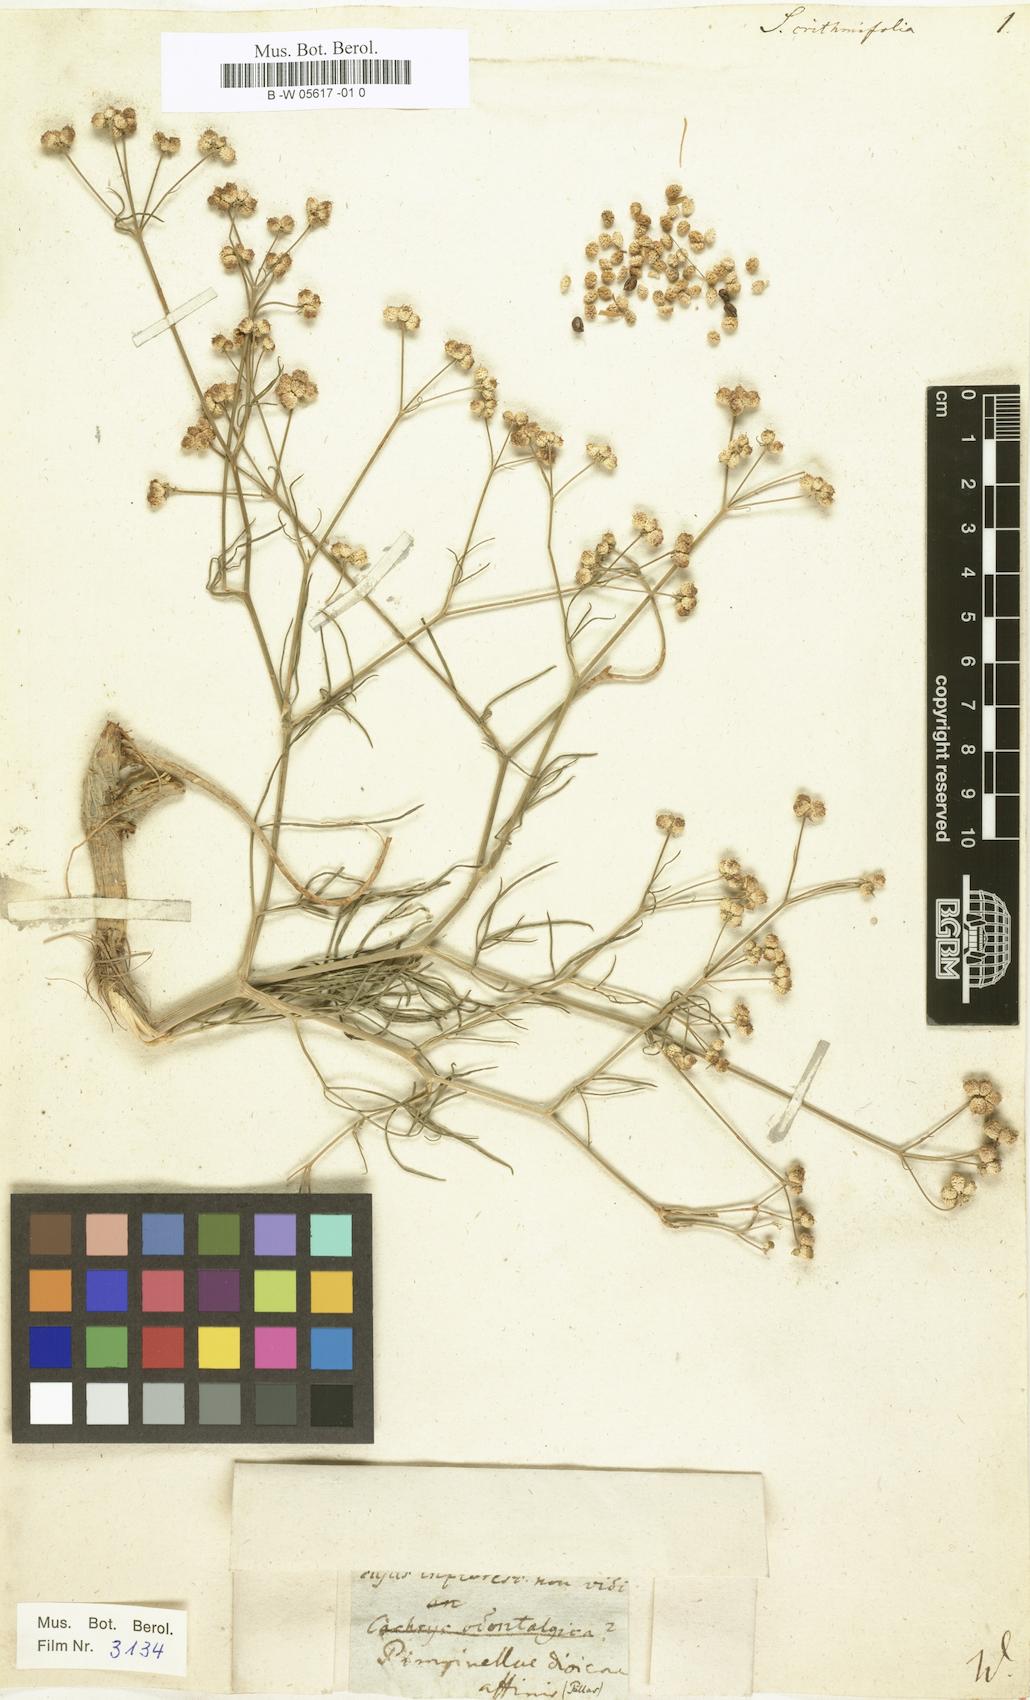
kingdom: Plantae
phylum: Tracheophyta
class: Magnoliopsida
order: Apiales
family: Apiaceae
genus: Trinia
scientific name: Trinia crithmifolia
